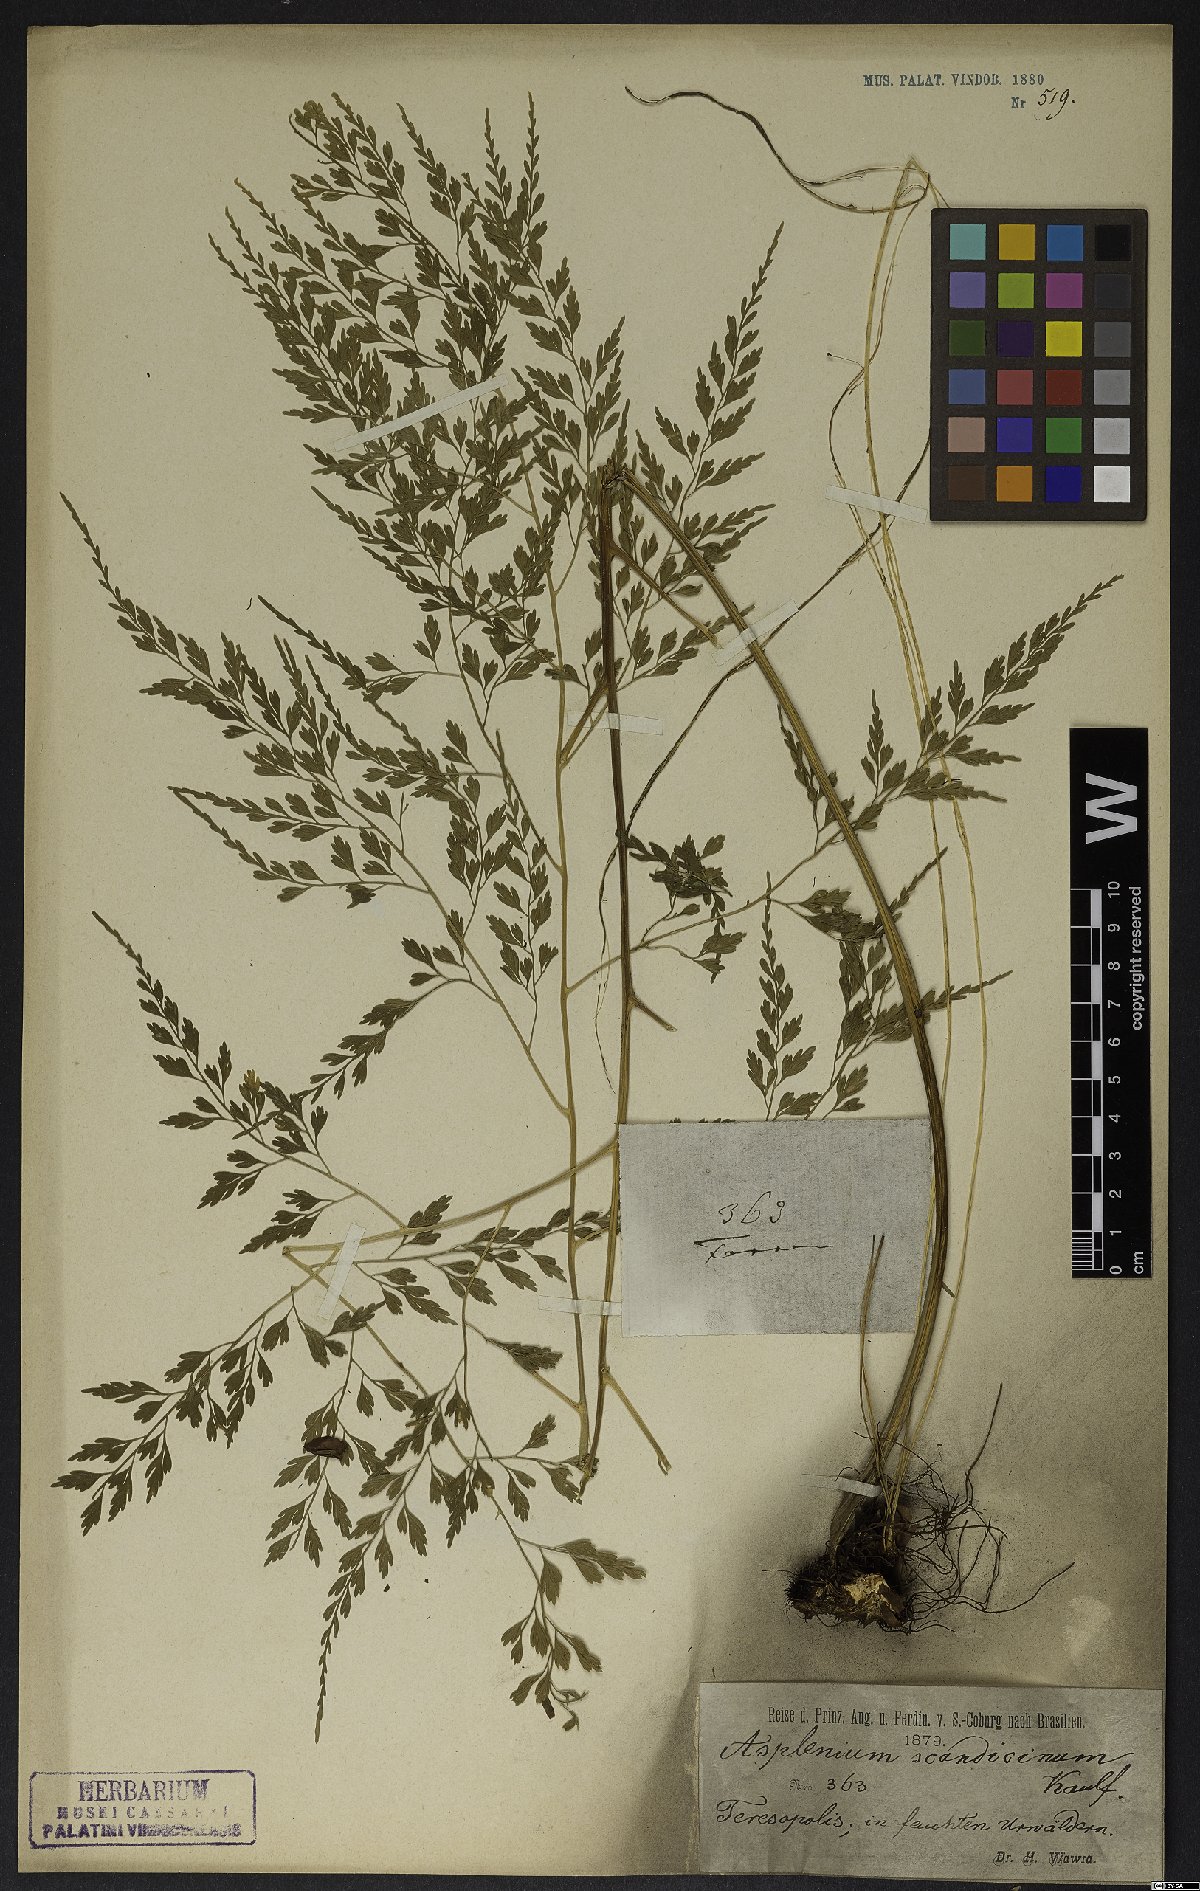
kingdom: Plantae
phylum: Tracheophyta
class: Polypodiopsida
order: Polypodiales
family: Aspleniaceae
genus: Asplenium
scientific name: Asplenium scandicinum
